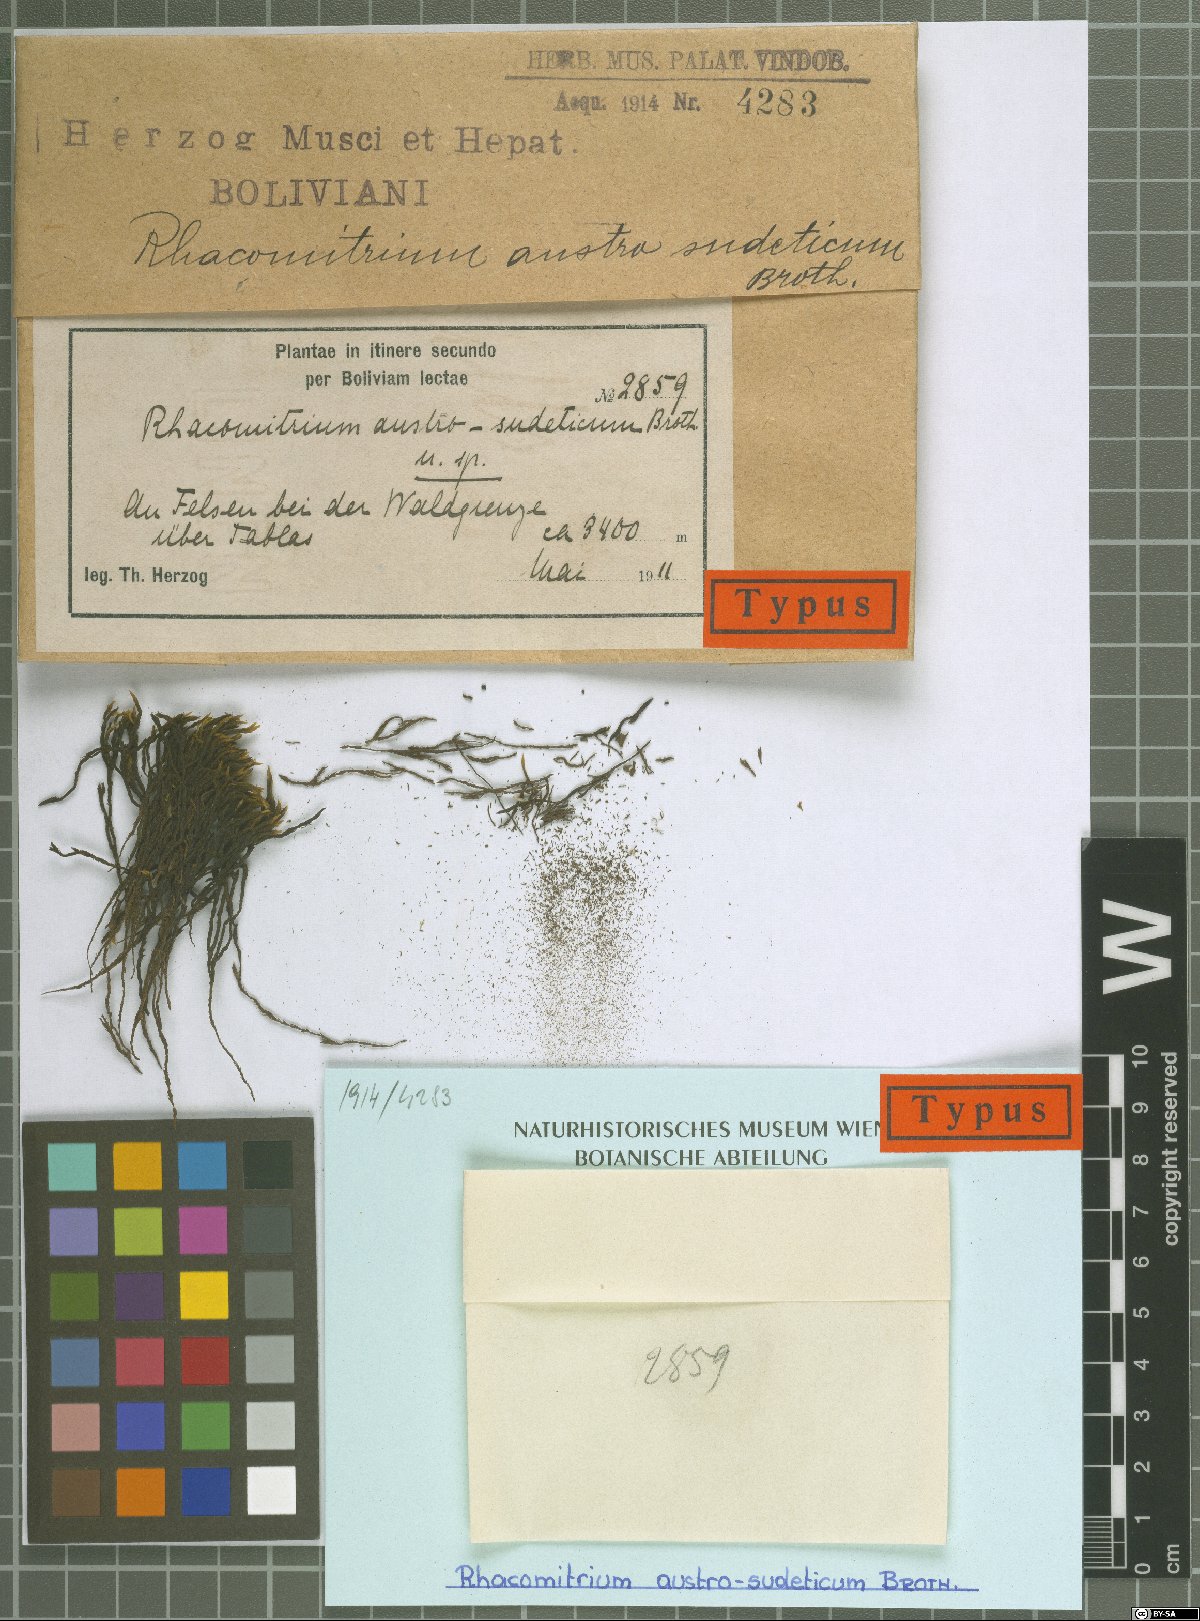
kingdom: Plantae
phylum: Bryophyta
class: Bryopsida
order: Grimmiales
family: Grimmiaceae
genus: Grimmia
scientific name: Grimmia austrofunalis
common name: Southern string grimmia
